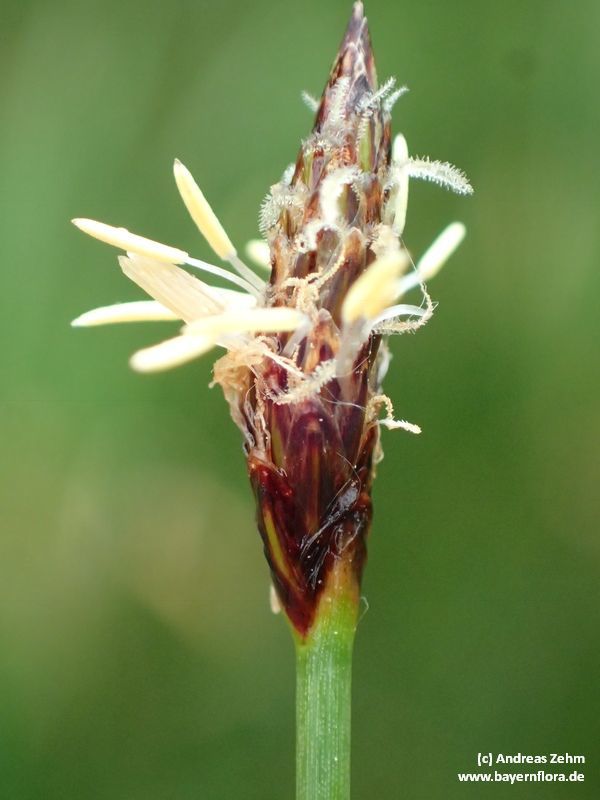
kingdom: Plantae
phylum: Tracheophyta
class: Liliopsida
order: Poales
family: Cyperaceae
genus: Eleocharis
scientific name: Eleocharis palustris
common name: Common spike-rush
